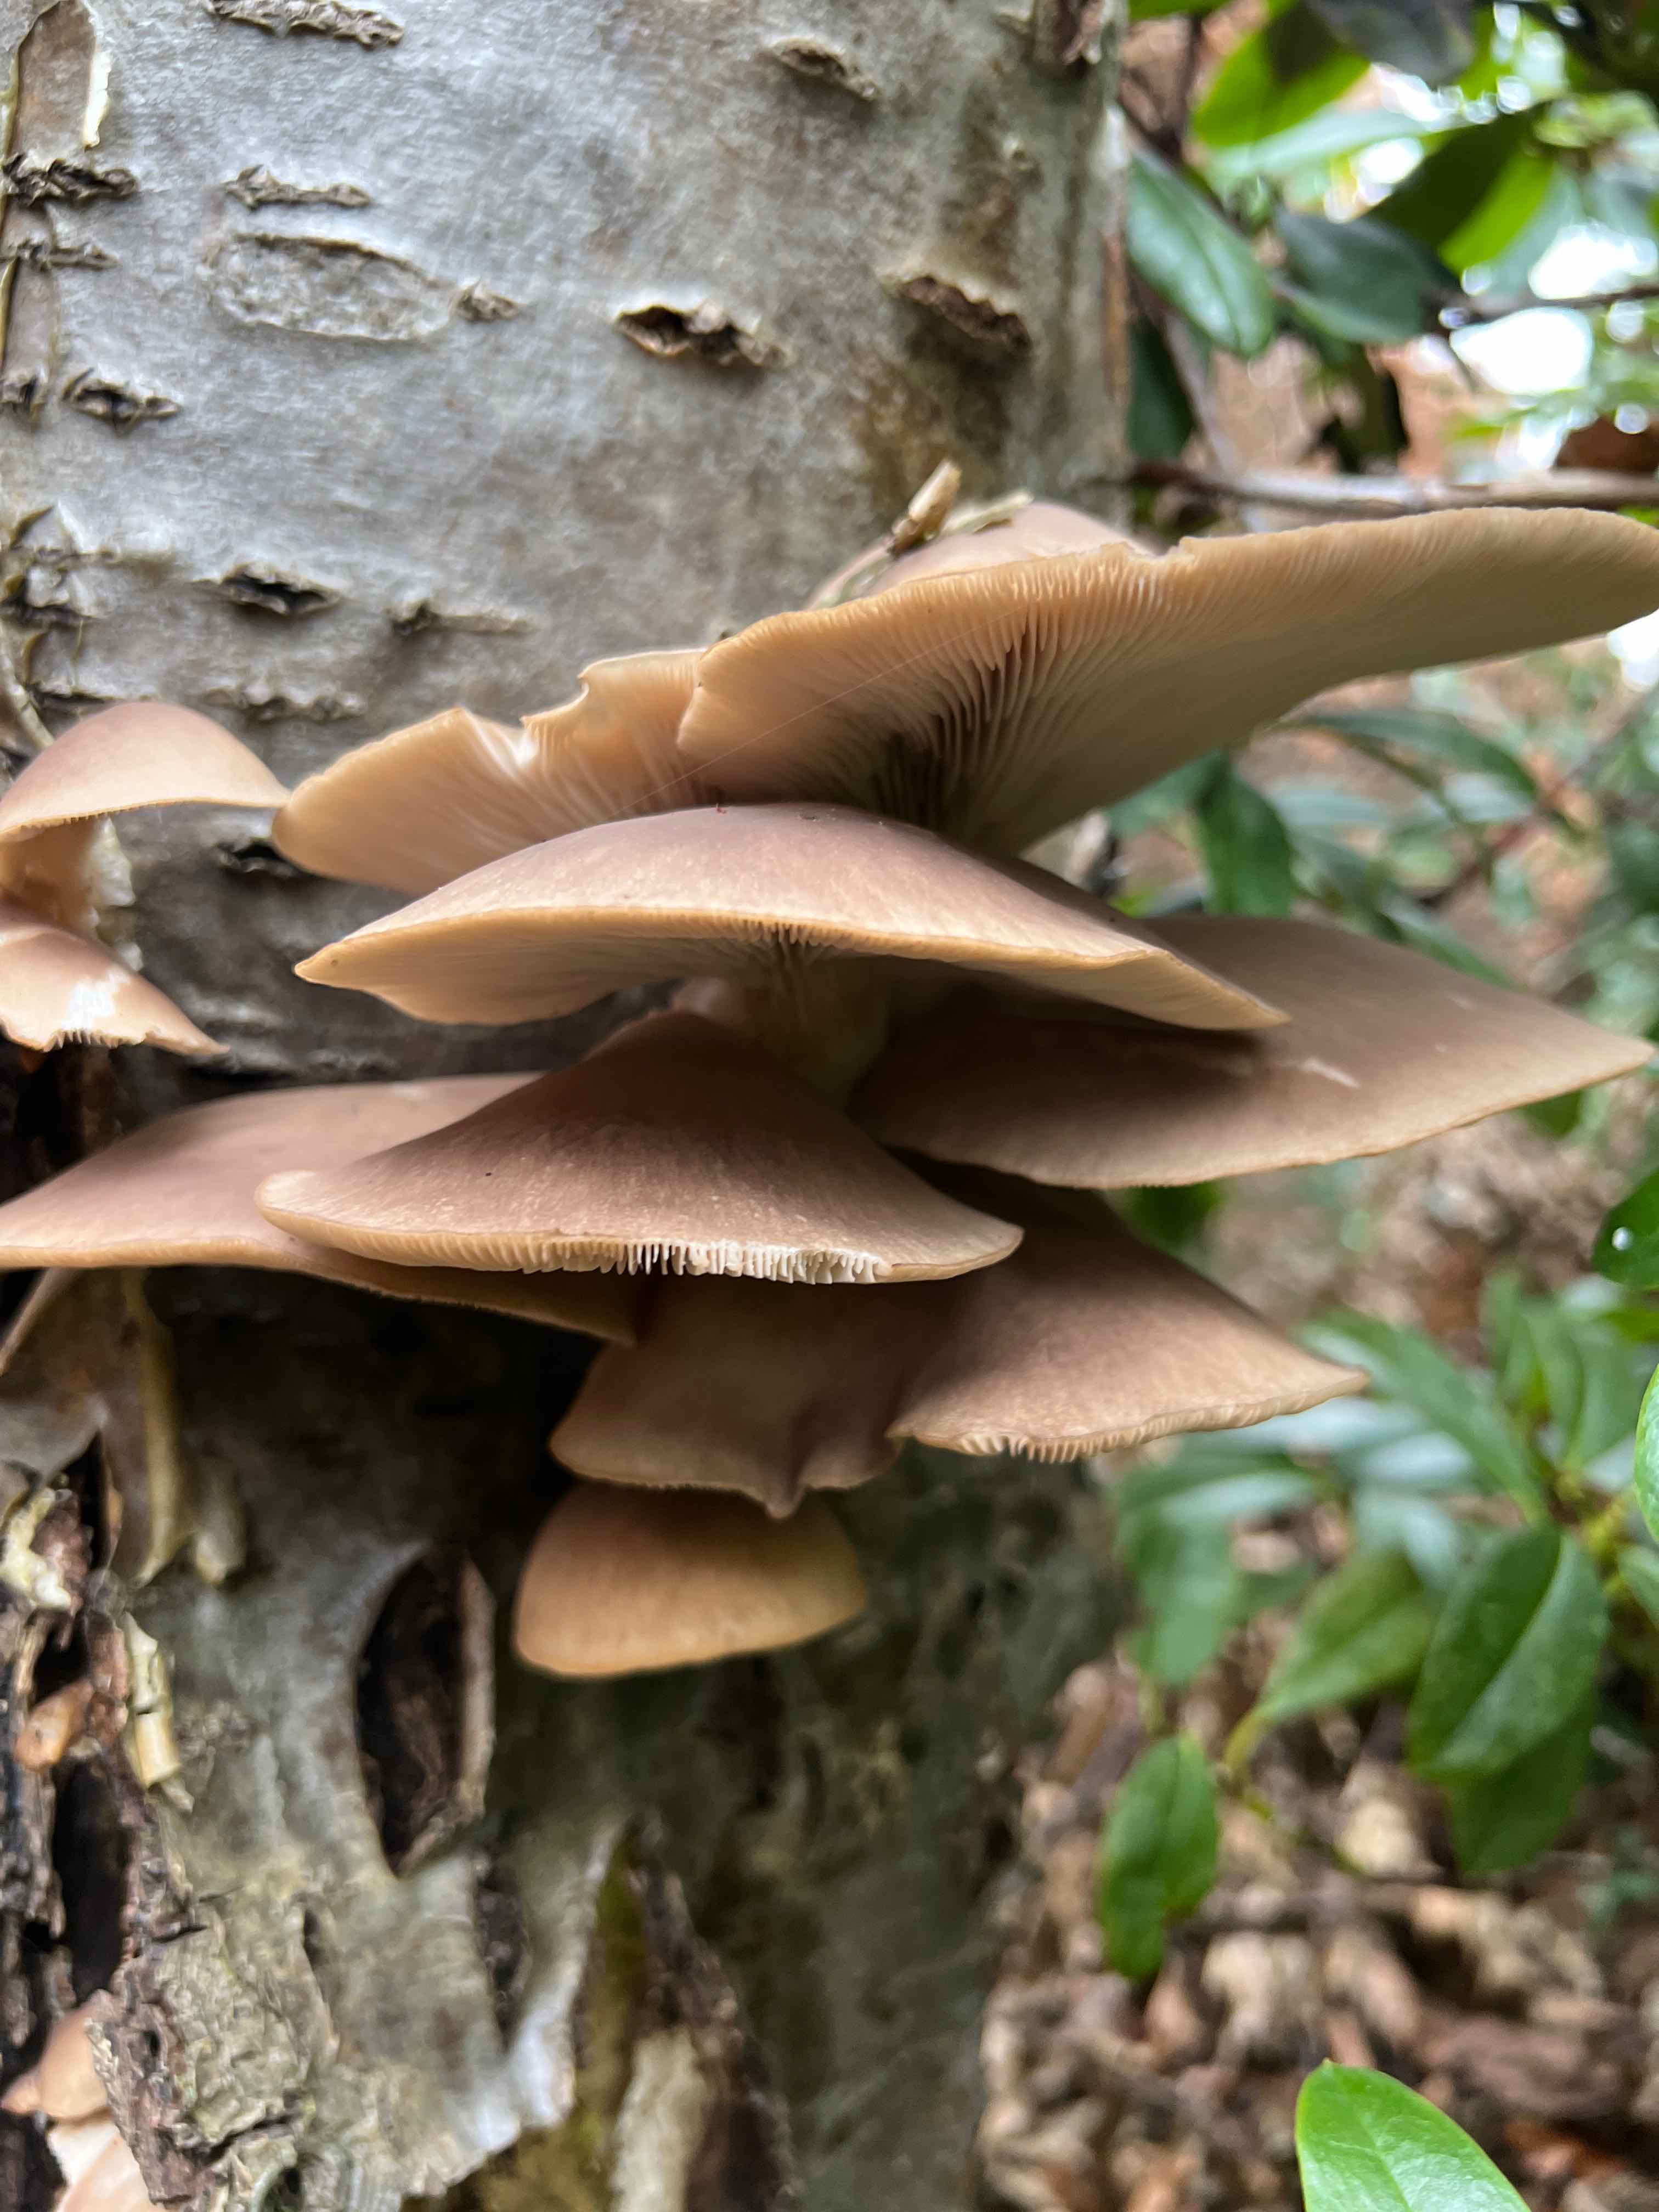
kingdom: Fungi
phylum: Basidiomycota
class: Agaricomycetes
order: Agaricales
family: Pleurotaceae
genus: Pleurotus
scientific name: Pleurotus ostreatus
